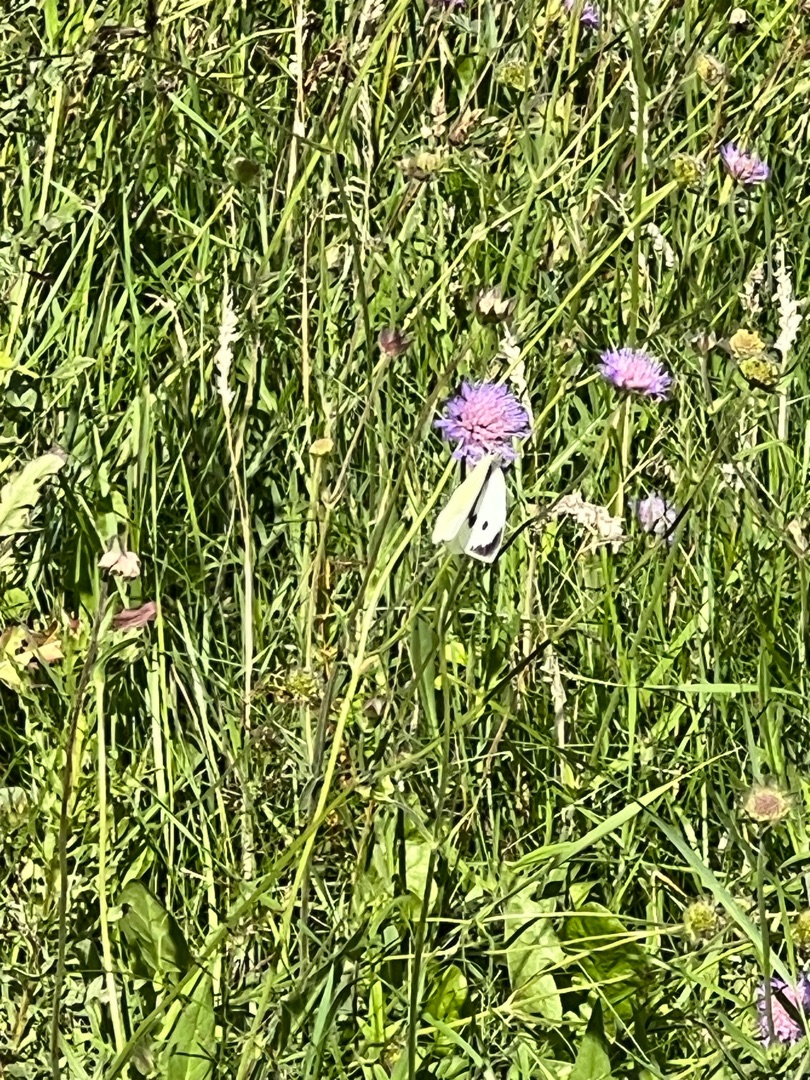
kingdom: Animalia
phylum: Arthropoda
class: Insecta
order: Lepidoptera
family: Pieridae
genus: Pieris
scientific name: Pieris brassicae
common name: Stor kålsommerfugl
